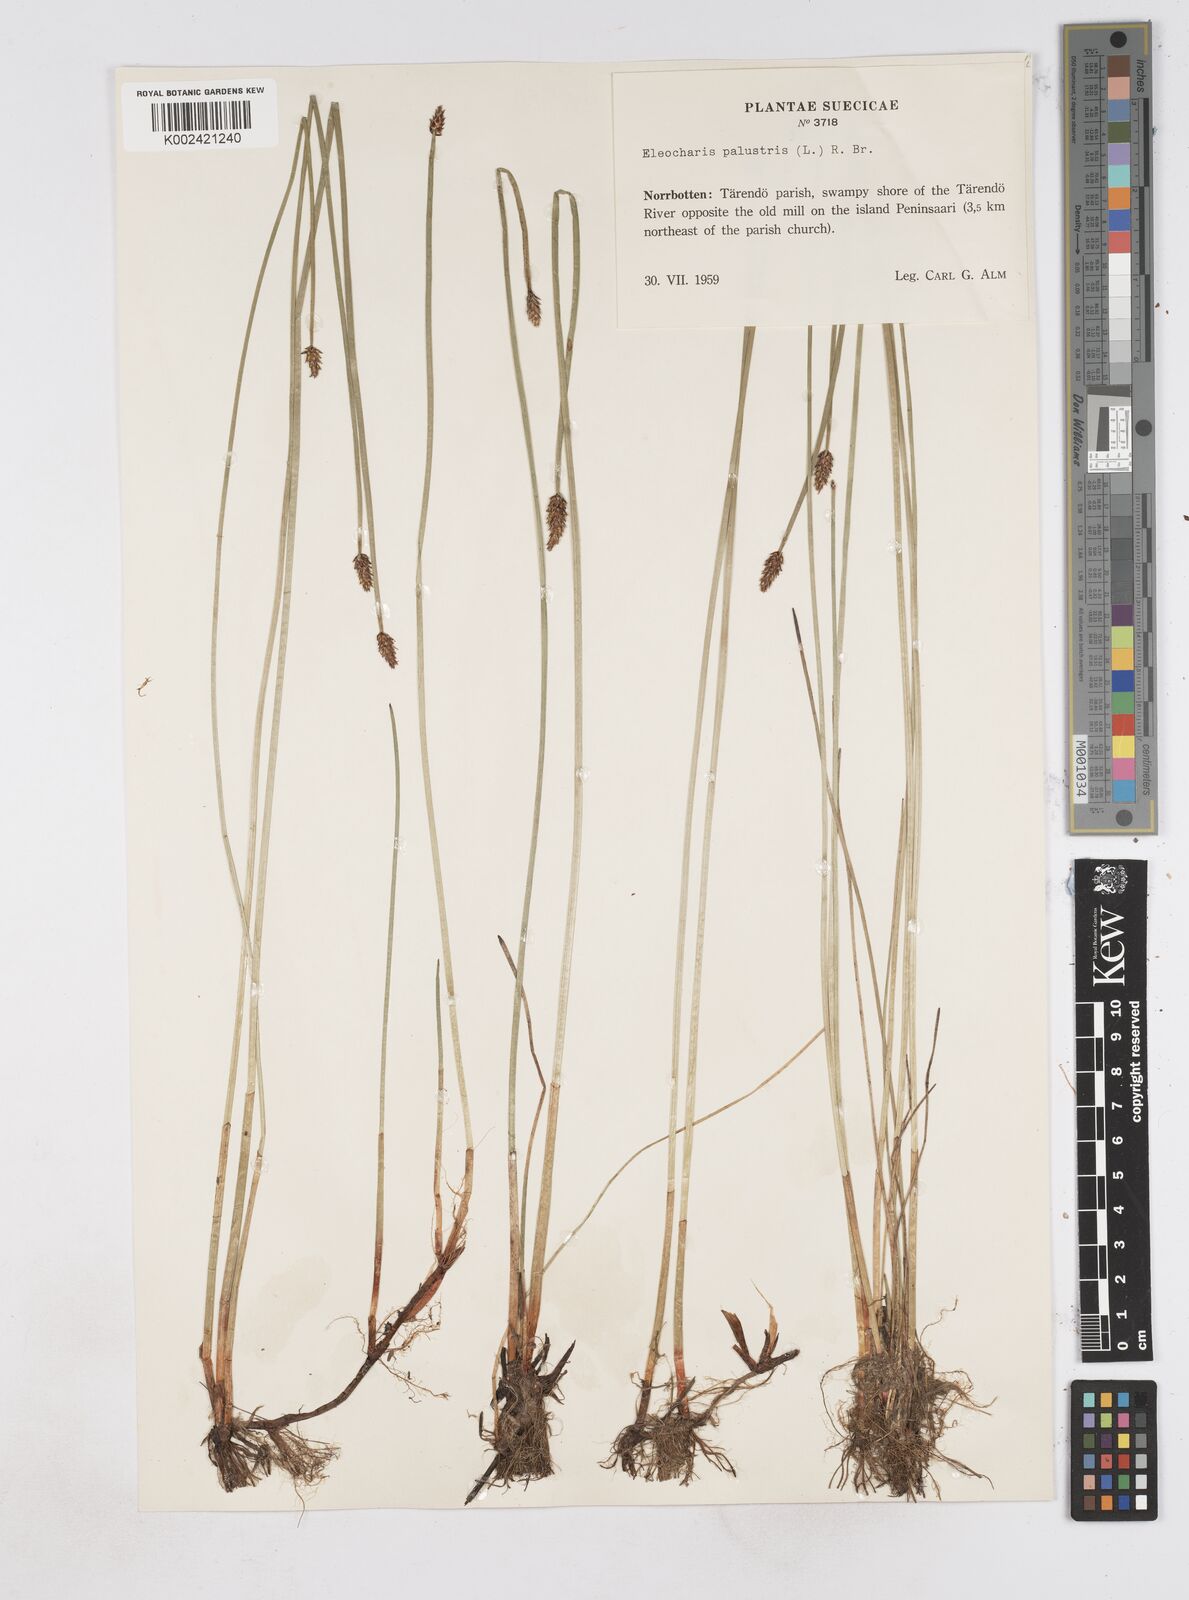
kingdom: Plantae
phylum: Tracheophyta
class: Liliopsida
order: Poales
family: Cyperaceae
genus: Eleocharis
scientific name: Eleocharis palustris
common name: Common spike-rush
